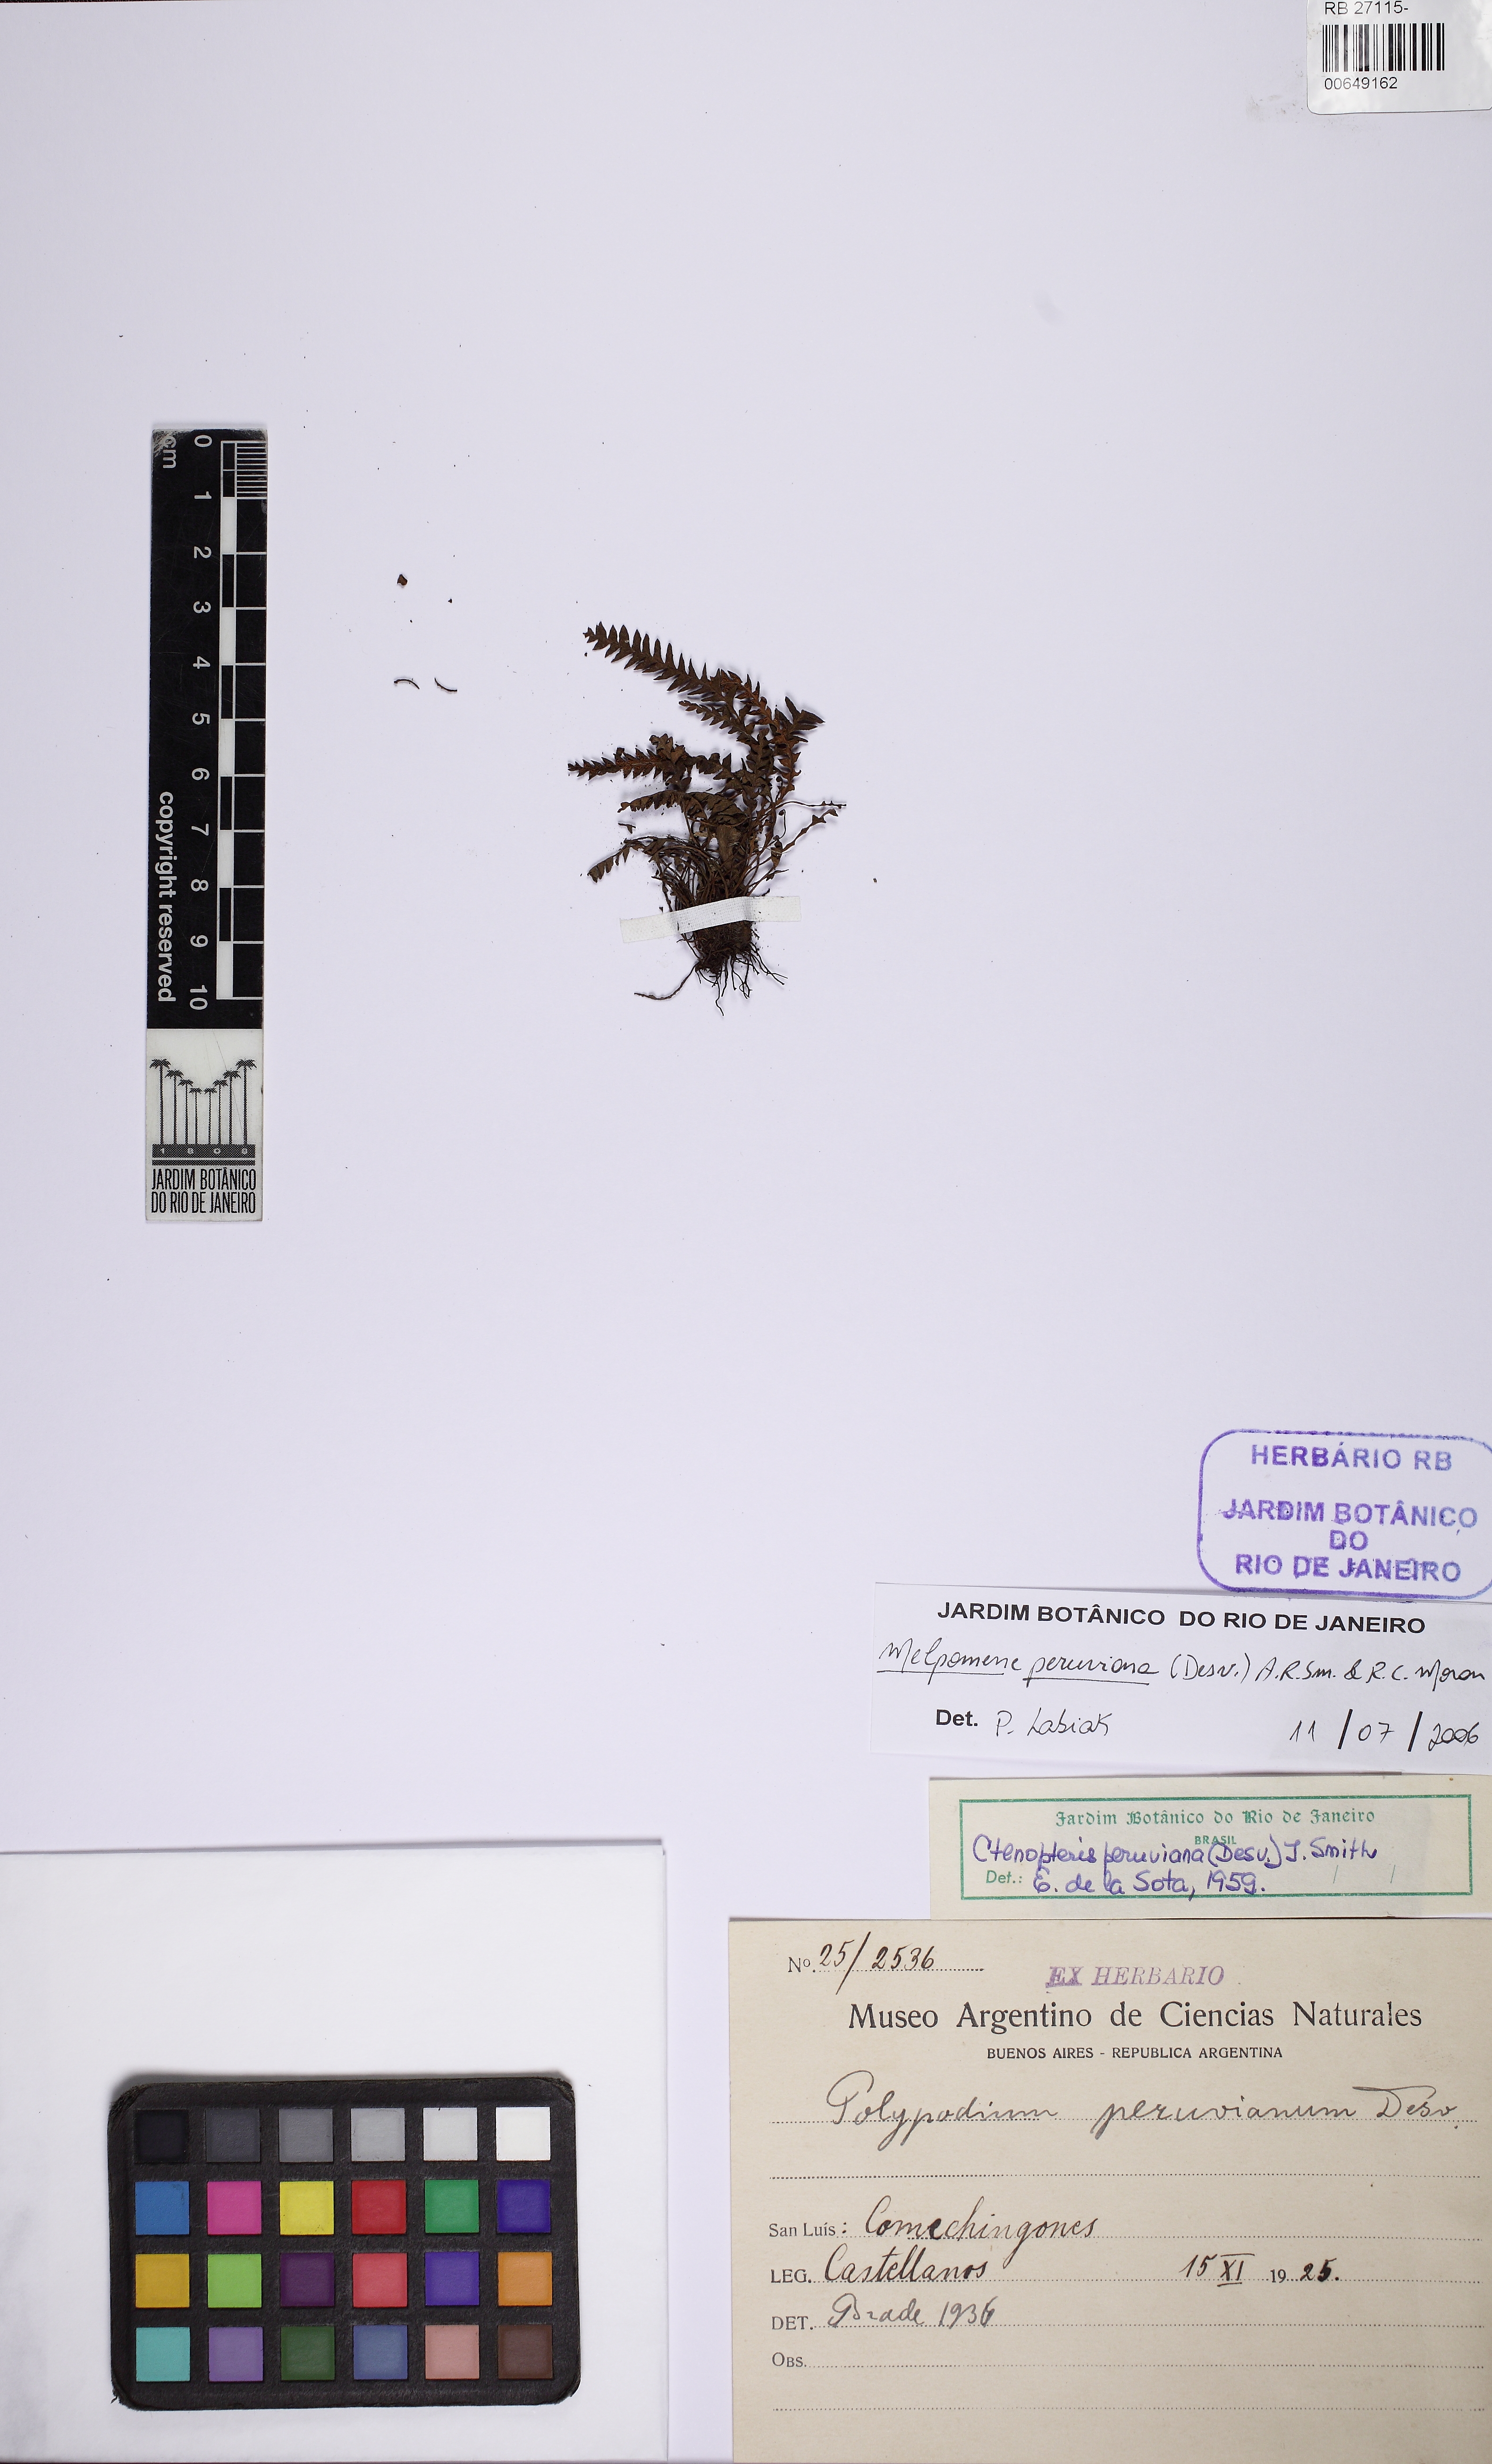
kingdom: Plantae
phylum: Tracheophyta
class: Polypodiopsida
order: Polypodiales
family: Polypodiaceae
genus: Melpomene
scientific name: Melpomene peruviana
